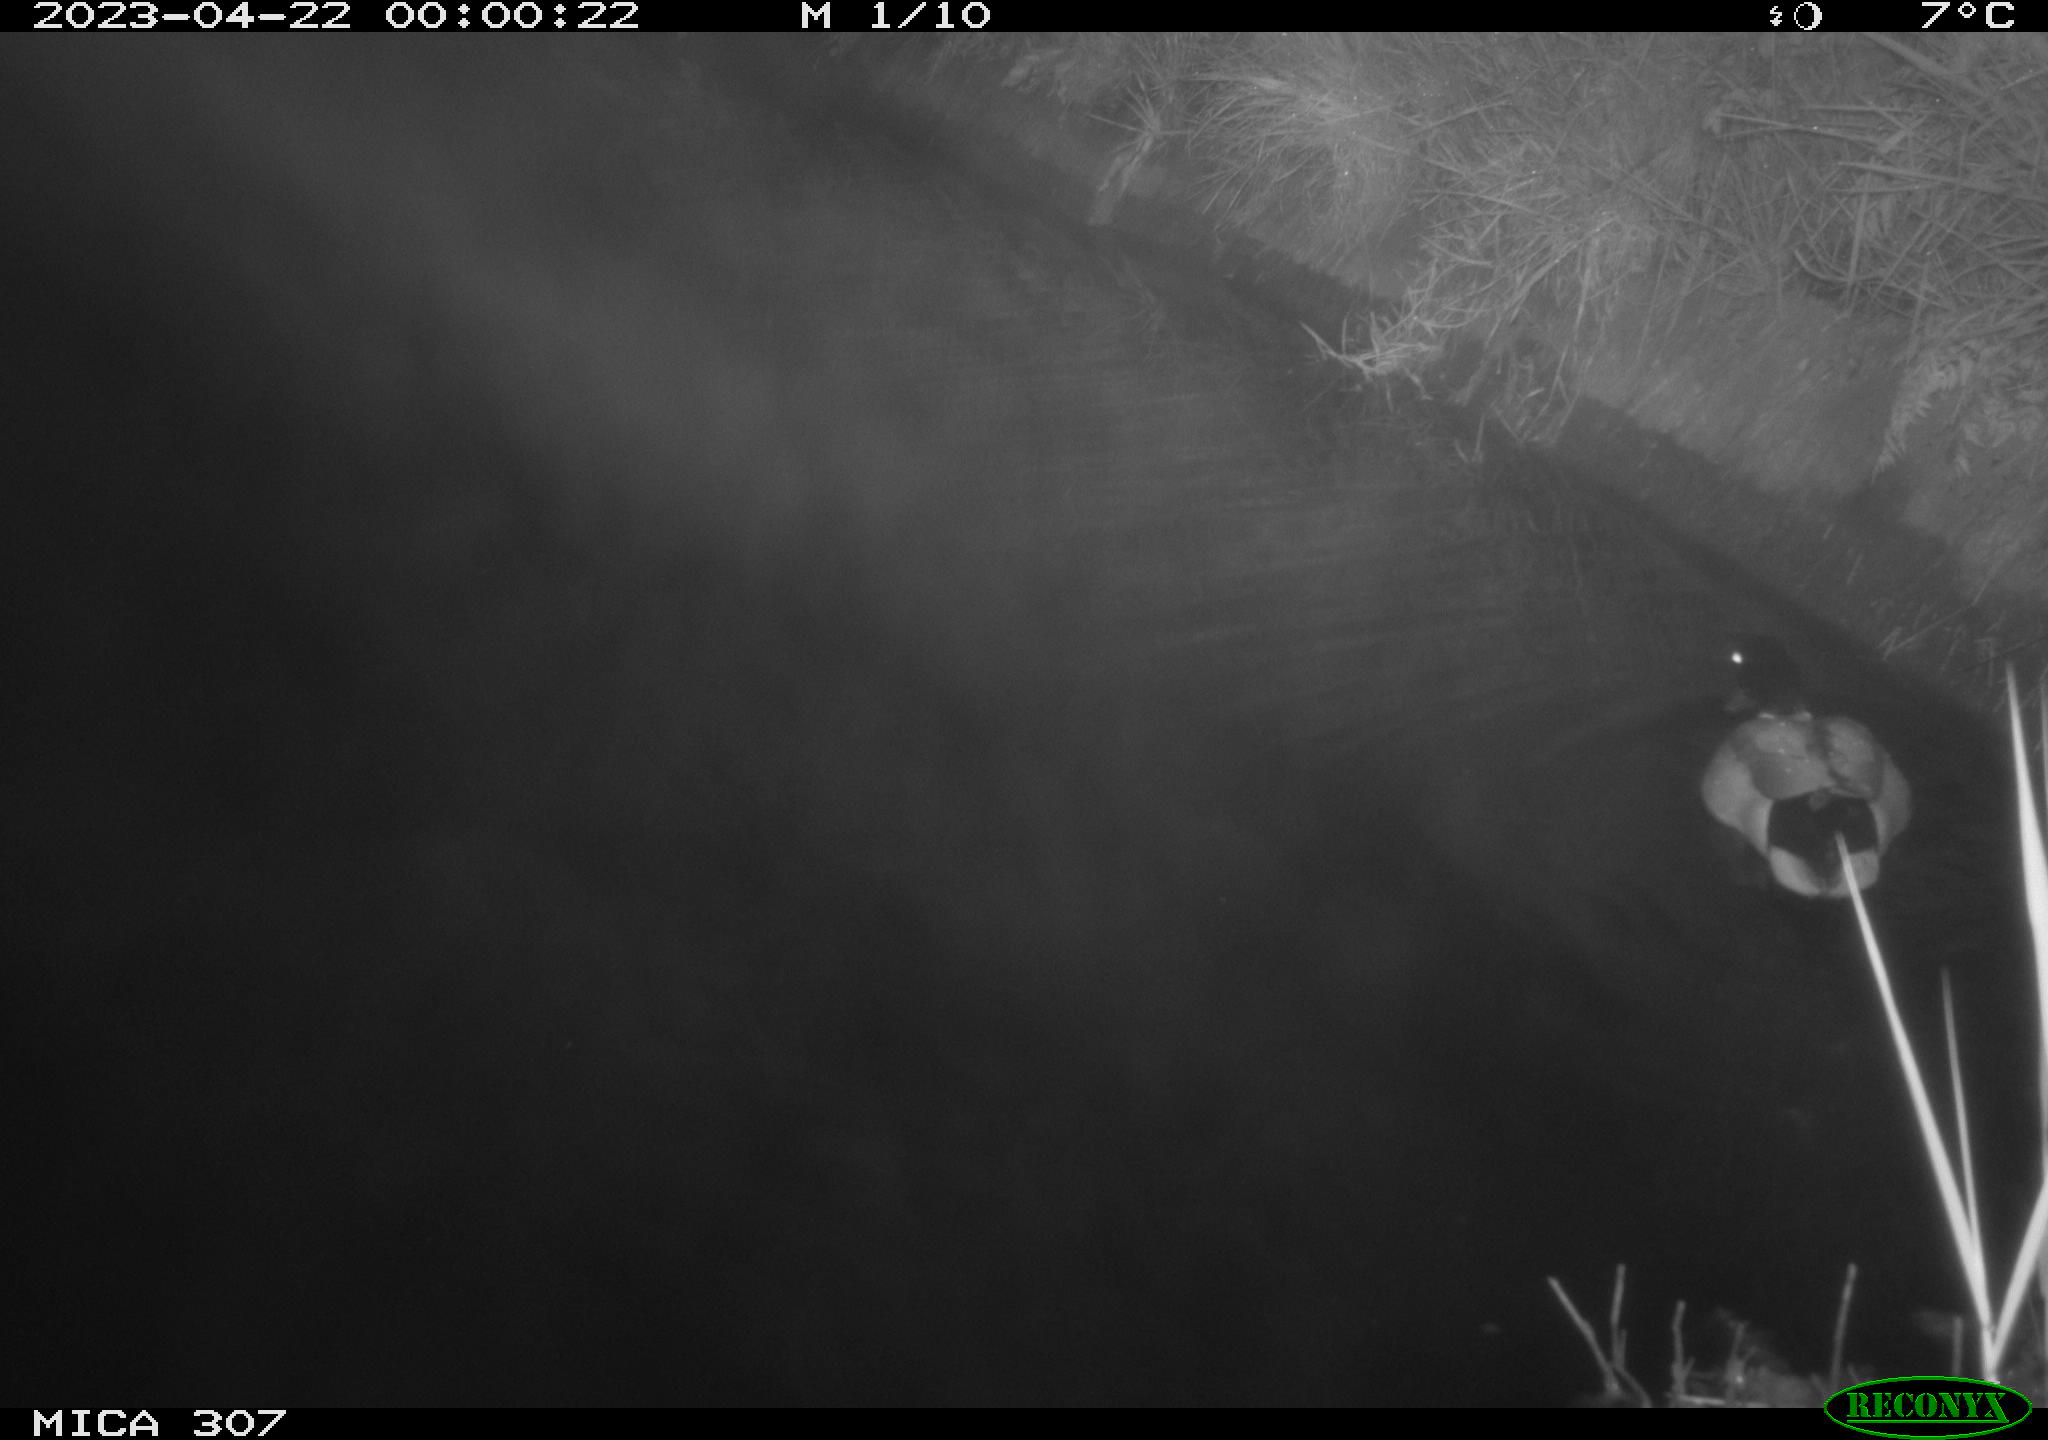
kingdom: Animalia
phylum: Chordata
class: Aves
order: Anseriformes
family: Anatidae
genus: Anas
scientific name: Anas
